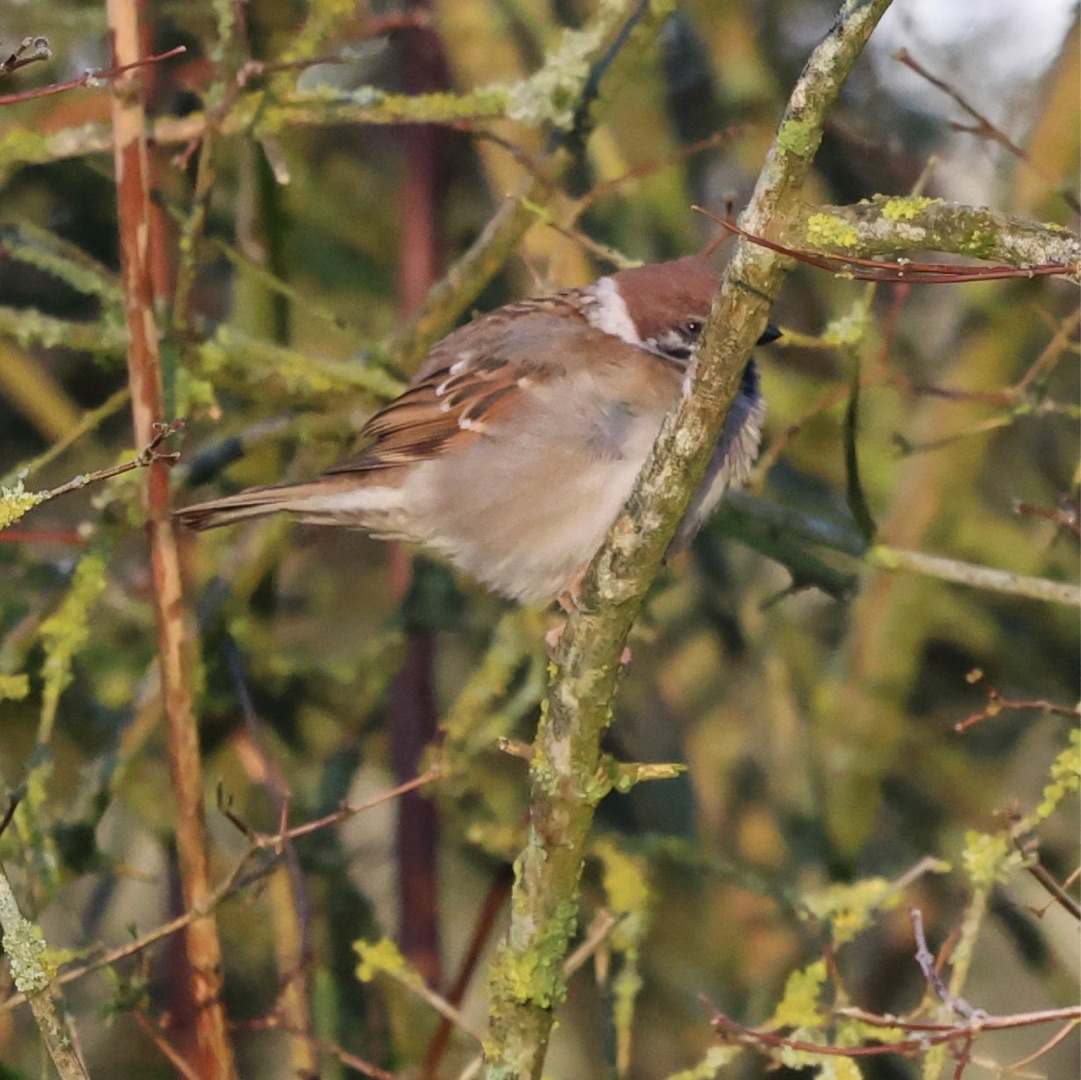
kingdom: Animalia
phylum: Chordata
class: Aves
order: Passeriformes
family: Passeridae
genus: Passer
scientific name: Passer montanus
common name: Skovspurv
